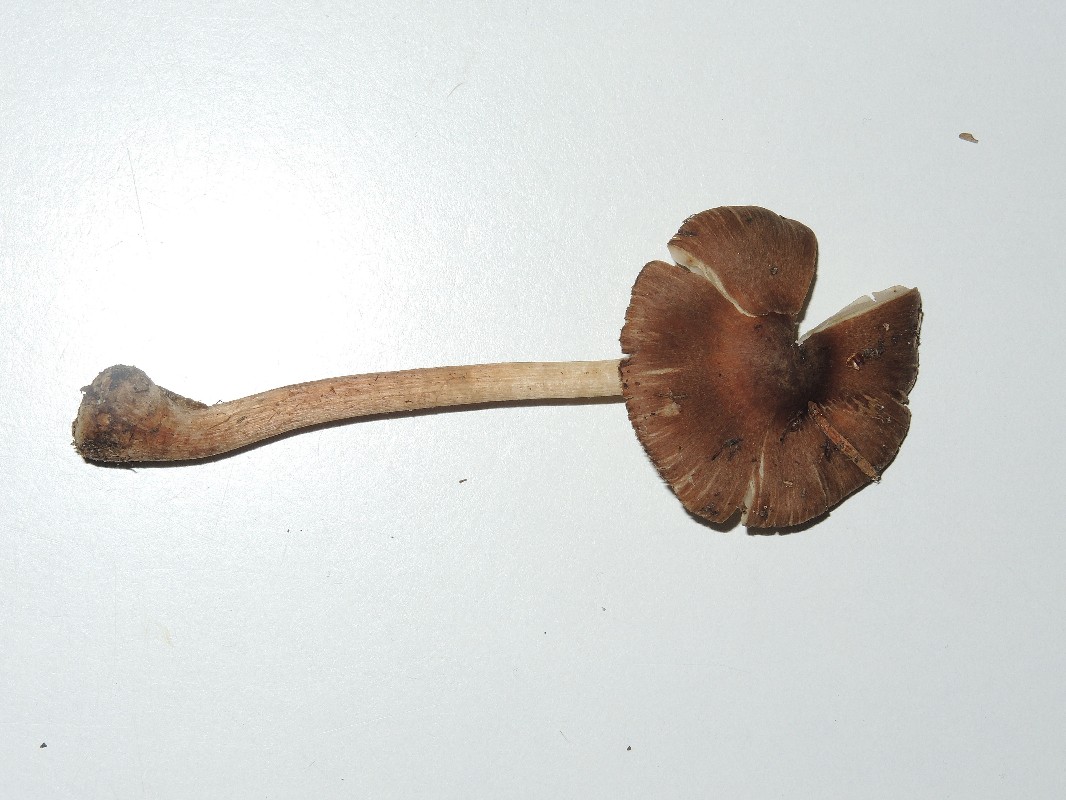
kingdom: Fungi
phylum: Basidiomycota
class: Agaricomycetes
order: Agaricales
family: Inocybaceae
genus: Inocybe
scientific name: Inocybe napipes
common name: roeknoldet trævlhat
